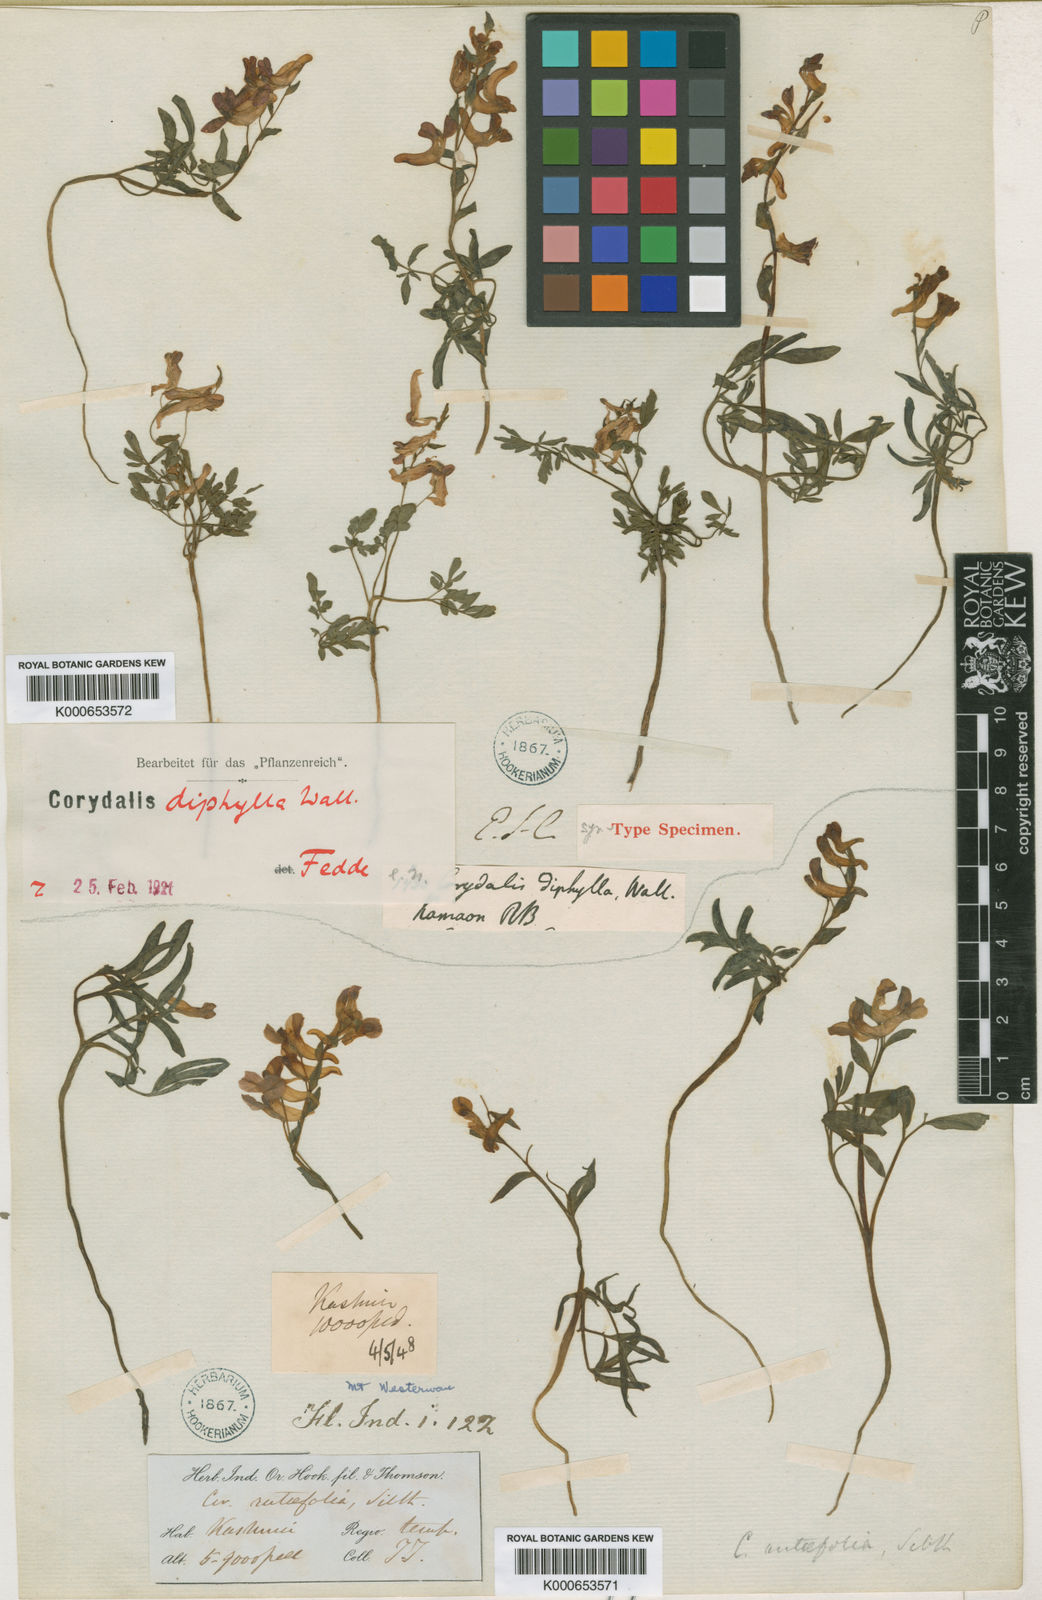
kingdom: Plantae
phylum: Tracheophyta
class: Magnoliopsida
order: Ranunculales
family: Papaveraceae
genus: Corydalis
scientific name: Corydalis diphylla
